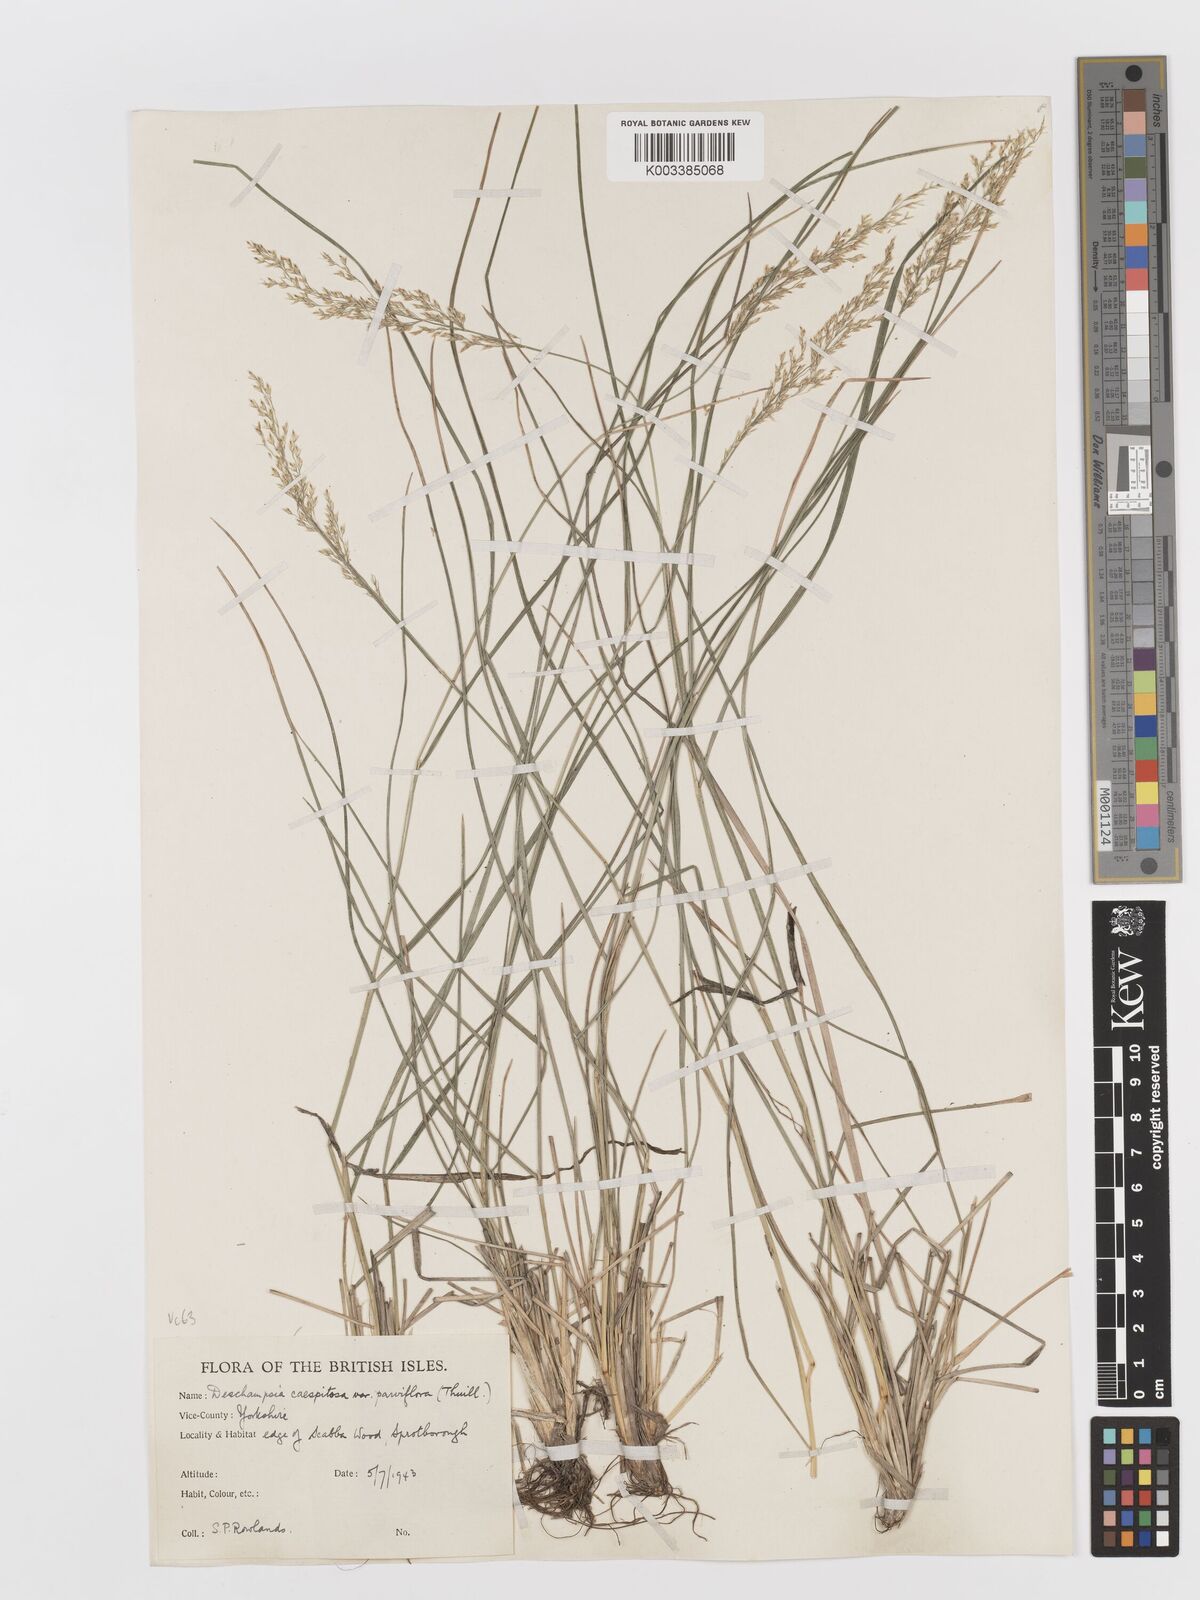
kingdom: Plantae
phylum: Tracheophyta
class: Liliopsida
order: Poales
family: Poaceae
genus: Deschampsia
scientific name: Deschampsia cespitosa
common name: Tufted hair-grass
